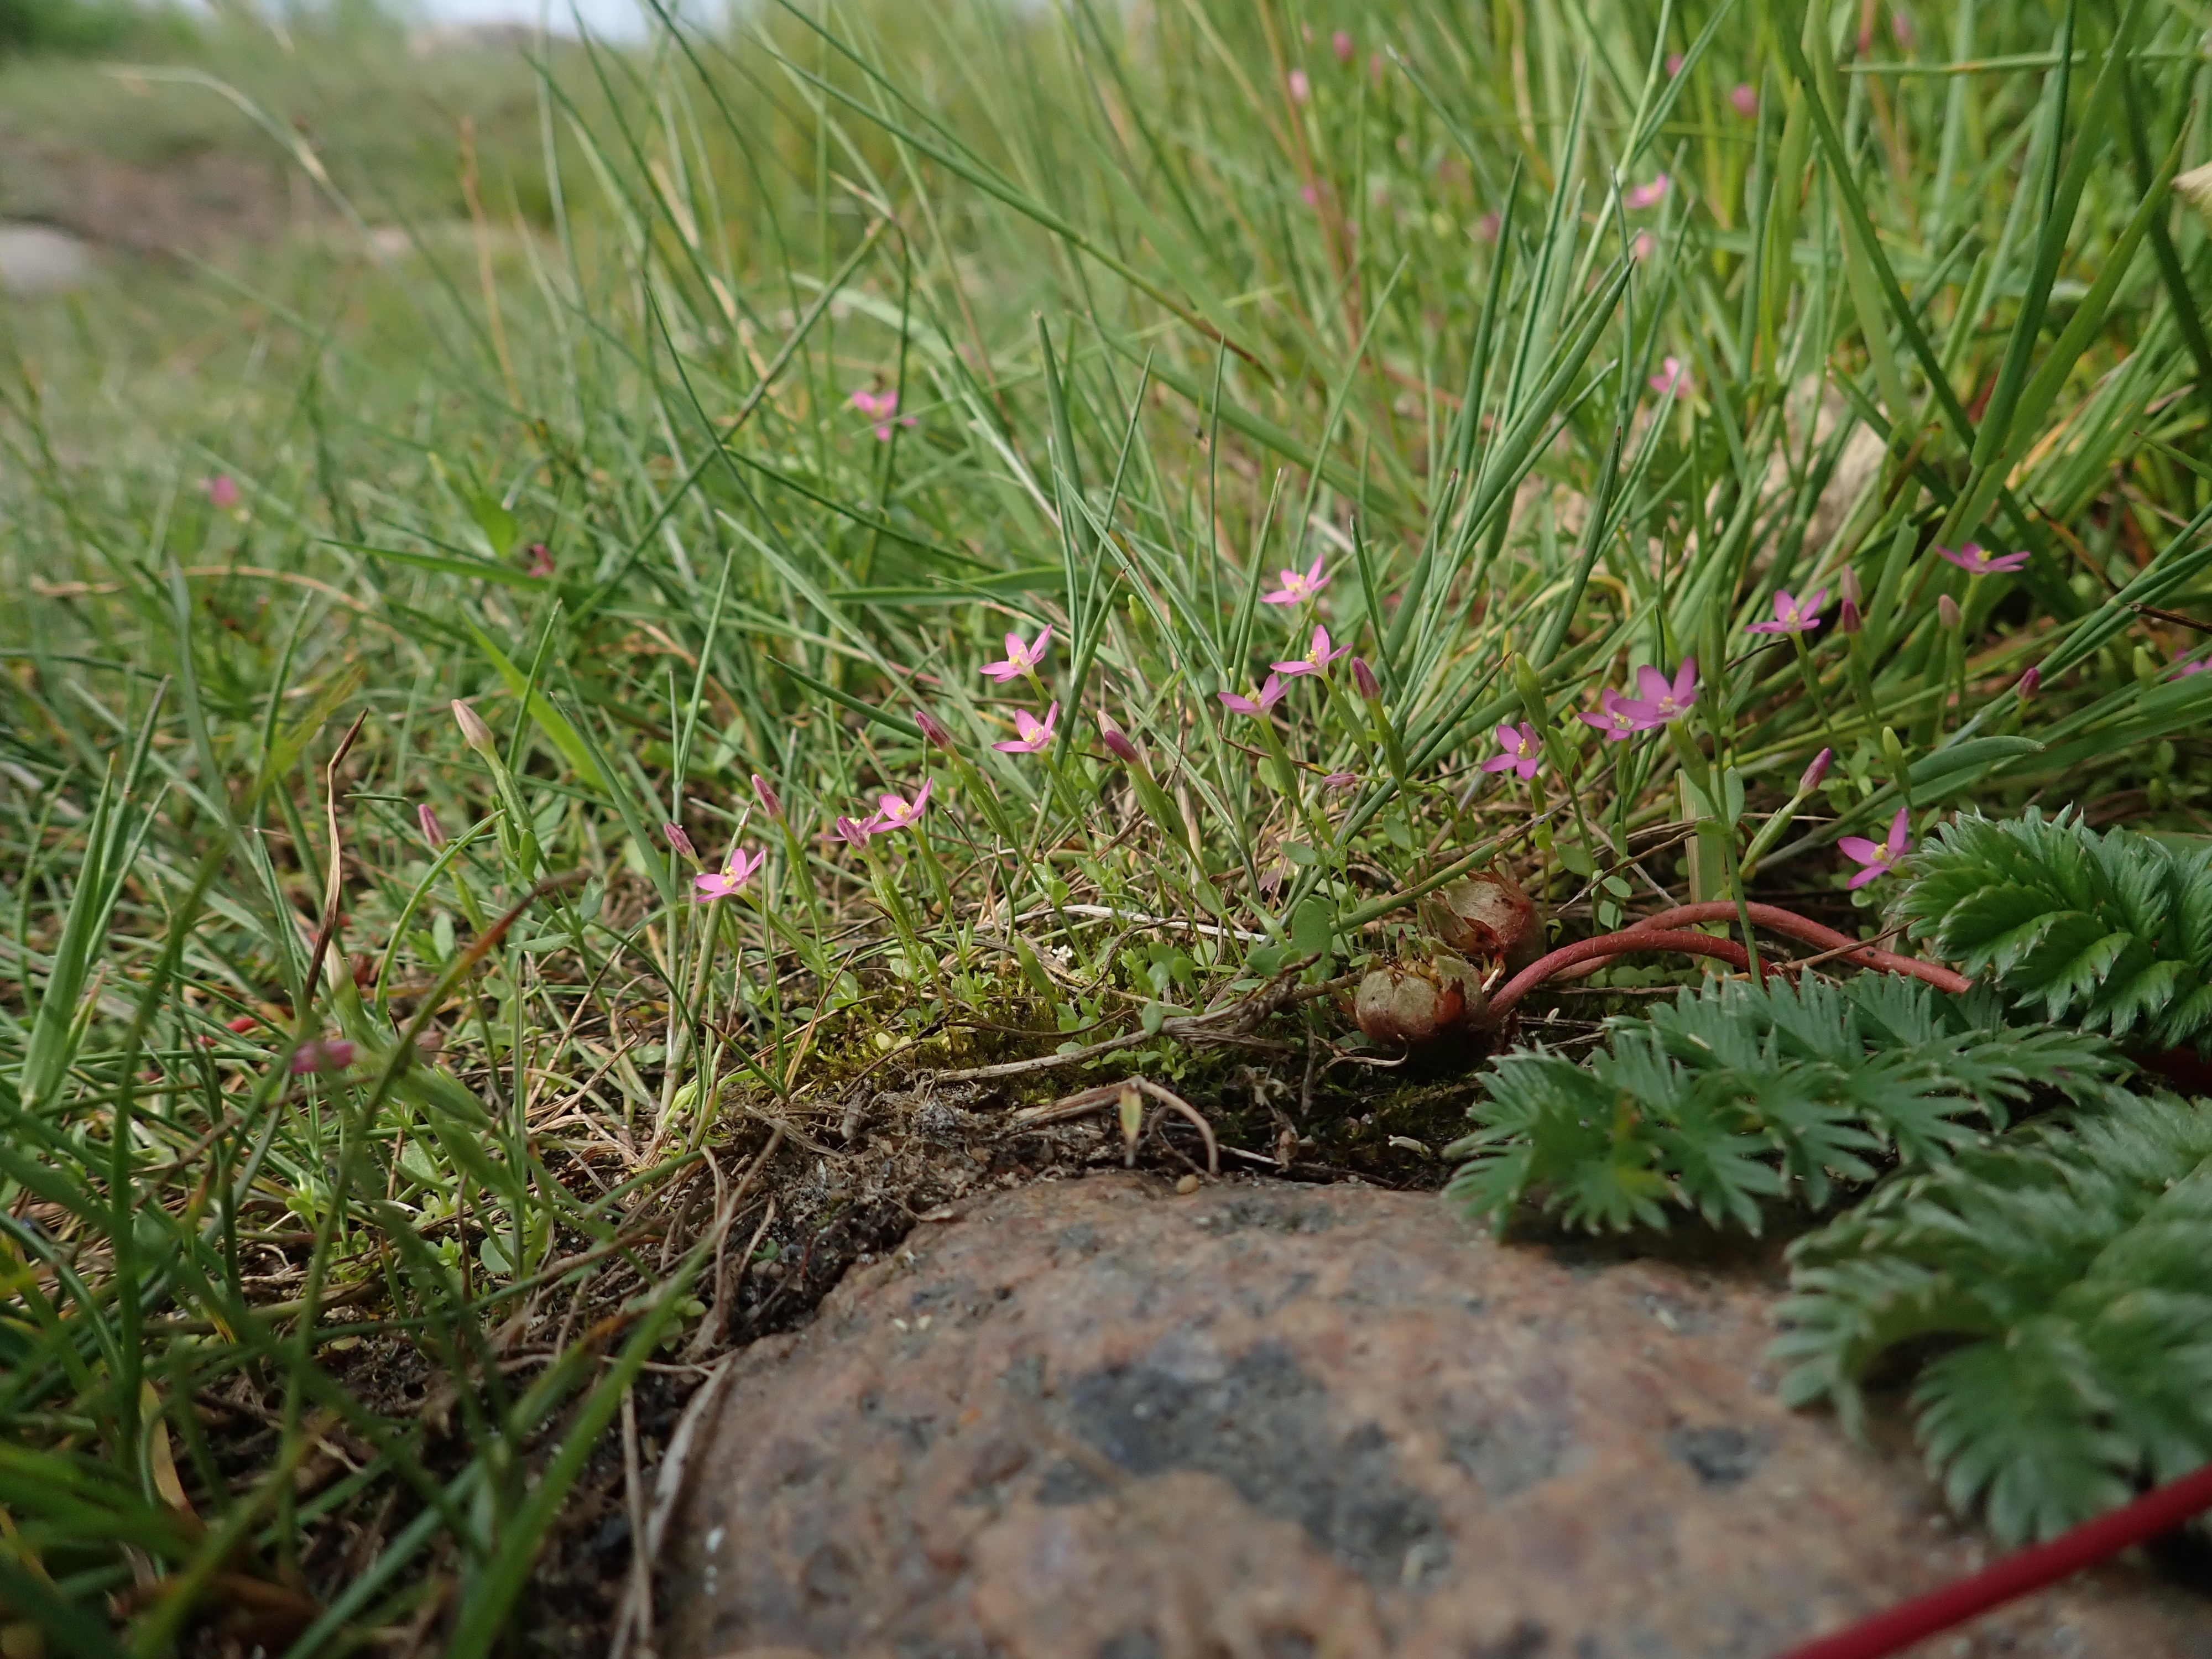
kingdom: Plantae
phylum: Tracheophyta
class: Magnoliopsida
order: Gentianales
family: Gentianaceae
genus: Centaurium
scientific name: Centaurium pulchellum
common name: Lesser centaury
